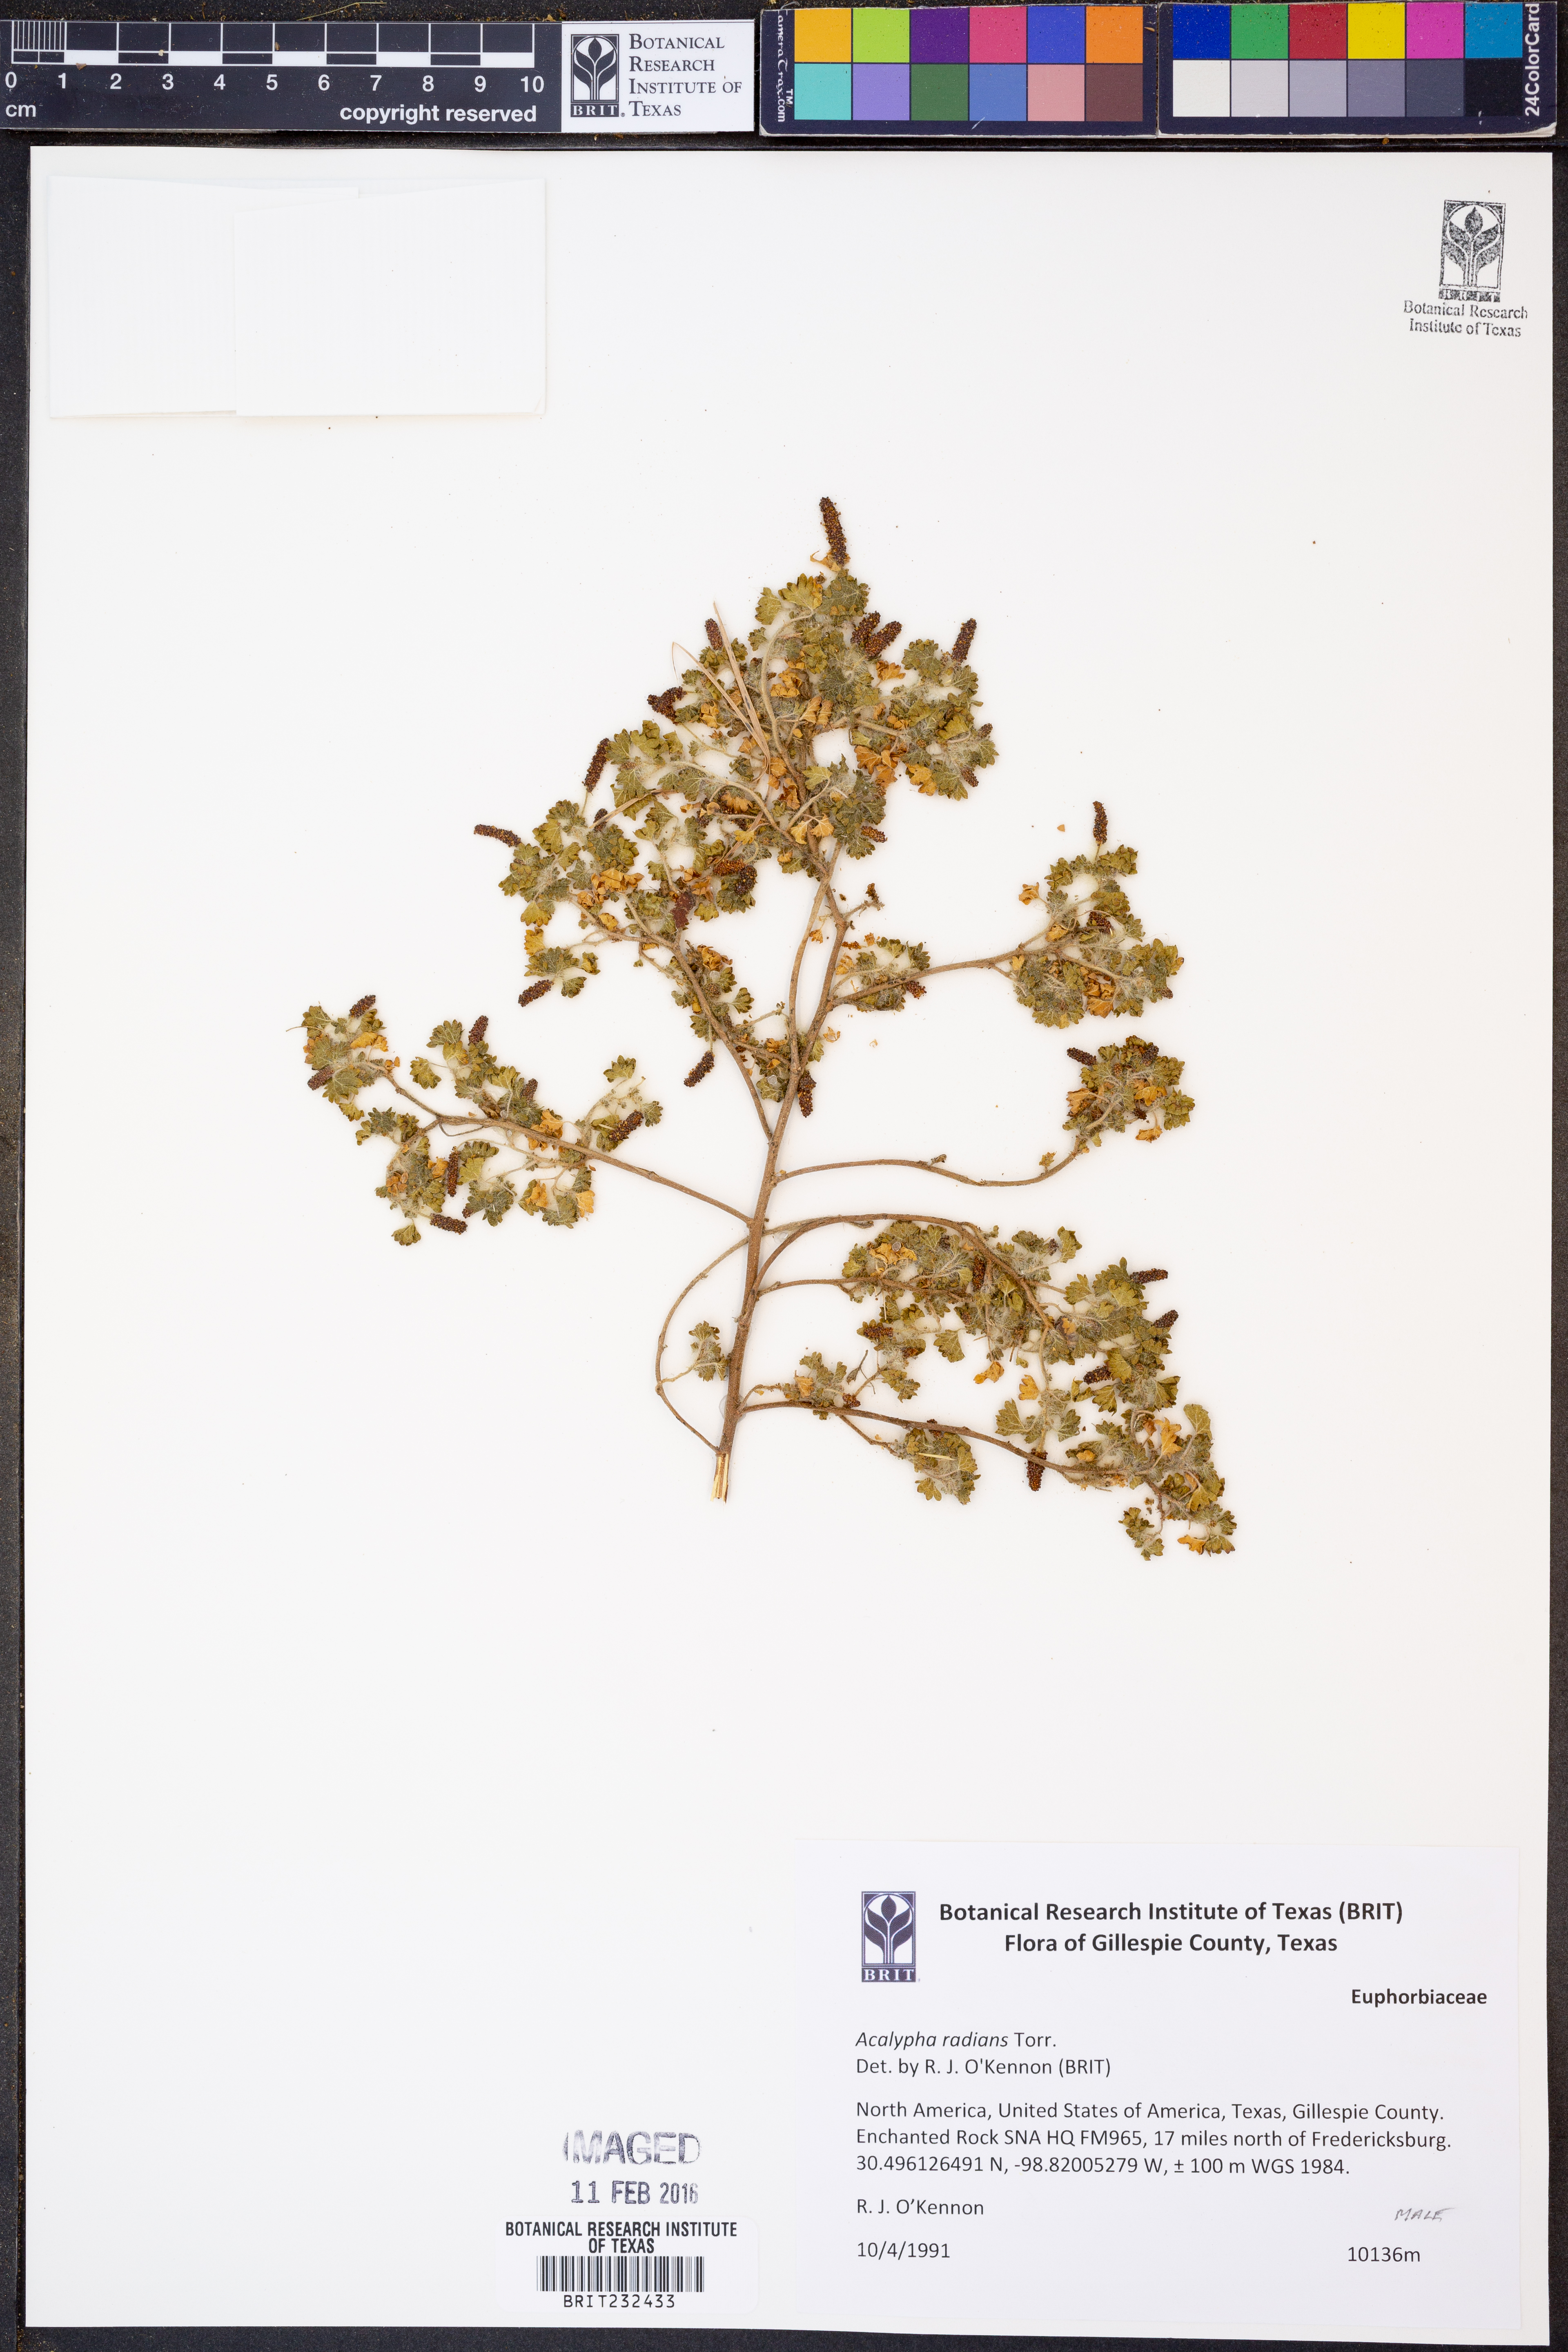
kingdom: Plantae
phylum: Tracheophyta
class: Magnoliopsida
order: Malpighiales
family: Euphorbiaceae
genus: Acalypha
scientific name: Acalypha radians
